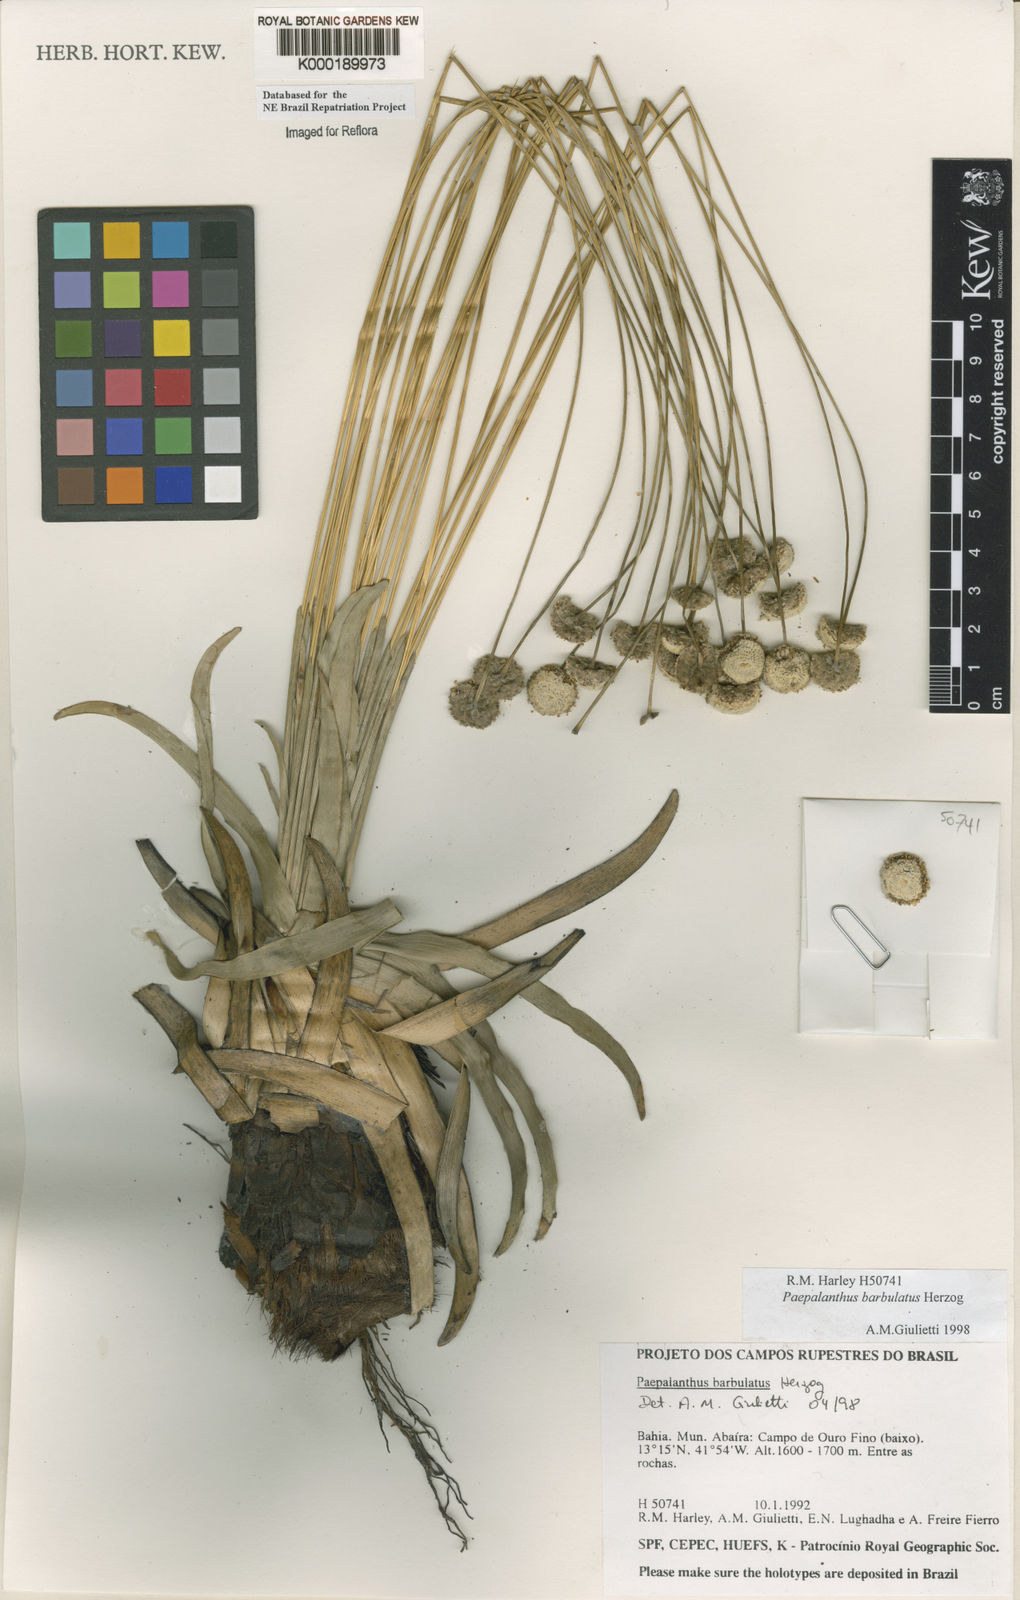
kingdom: Plantae
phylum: Tracheophyta
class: Liliopsida
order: Poales
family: Eriocaulaceae
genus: Paepalanthus
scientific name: Paepalanthus barbulatus
